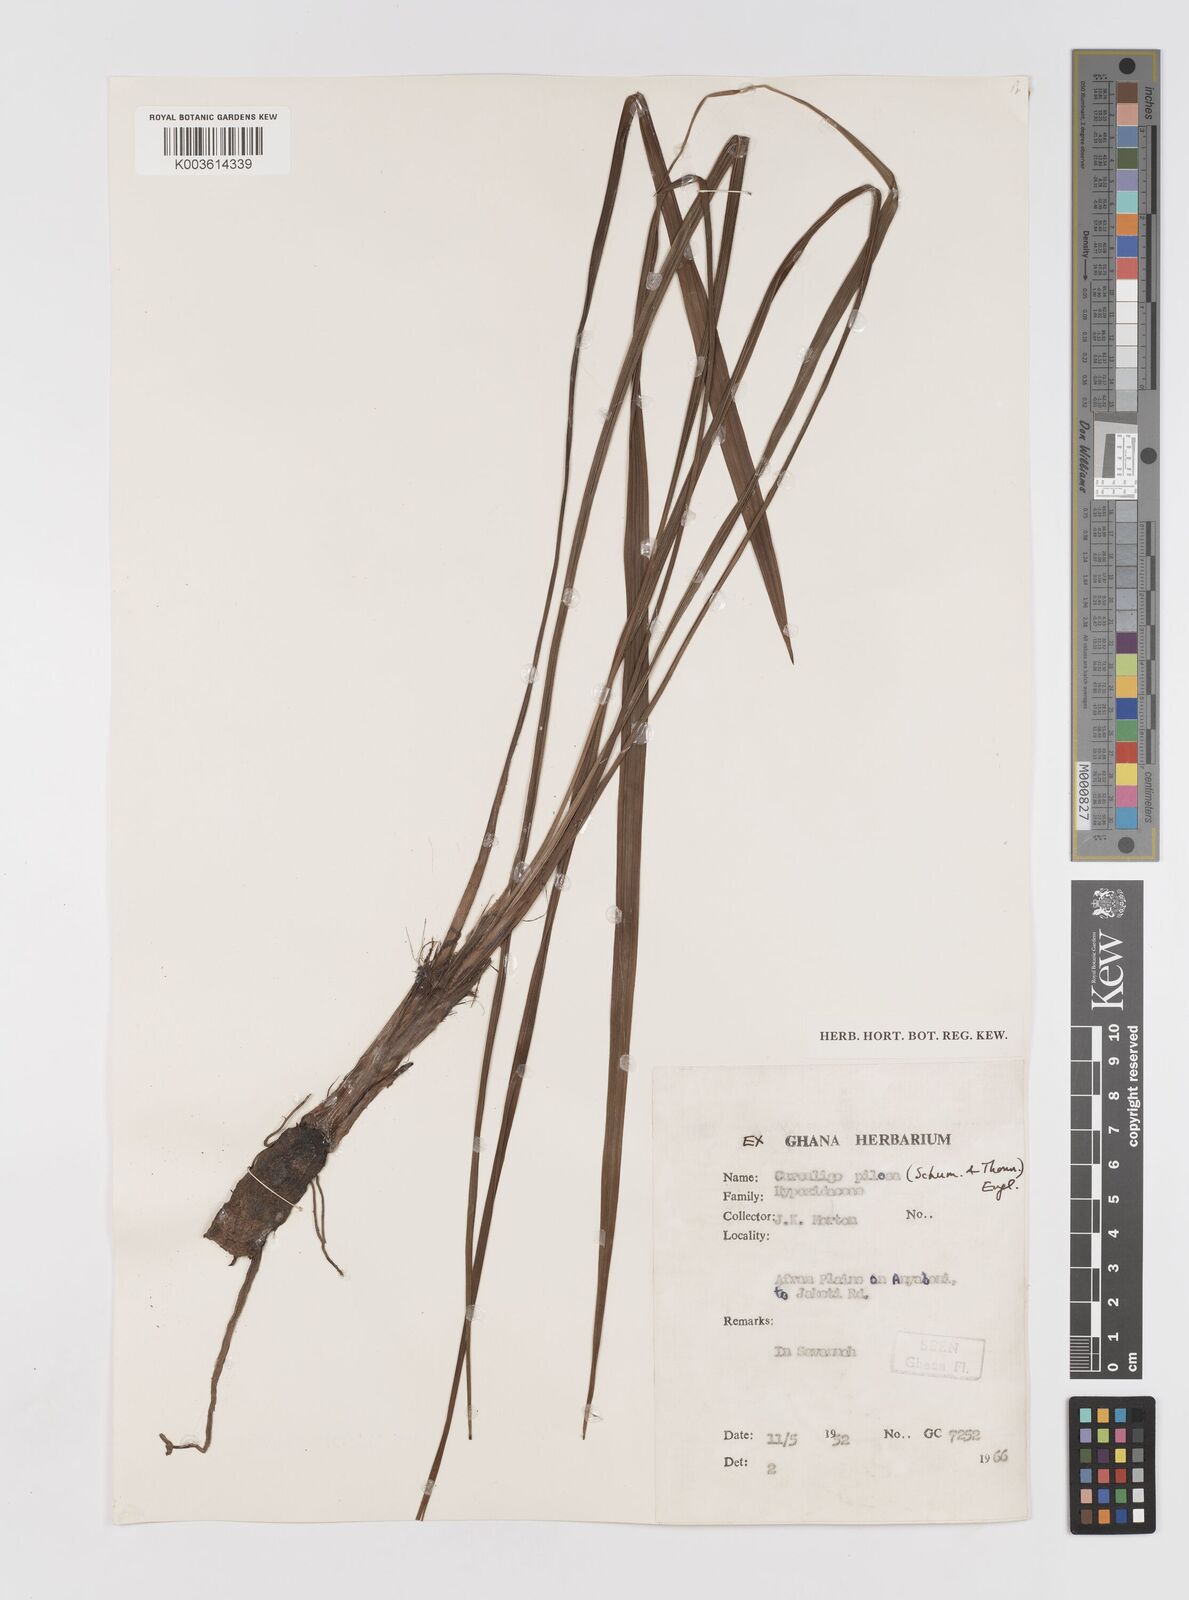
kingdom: Plantae
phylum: Tracheophyta
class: Liliopsida
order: Asparagales
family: Hypoxidaceae
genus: Curculigo
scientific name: Curculigo pilosa
